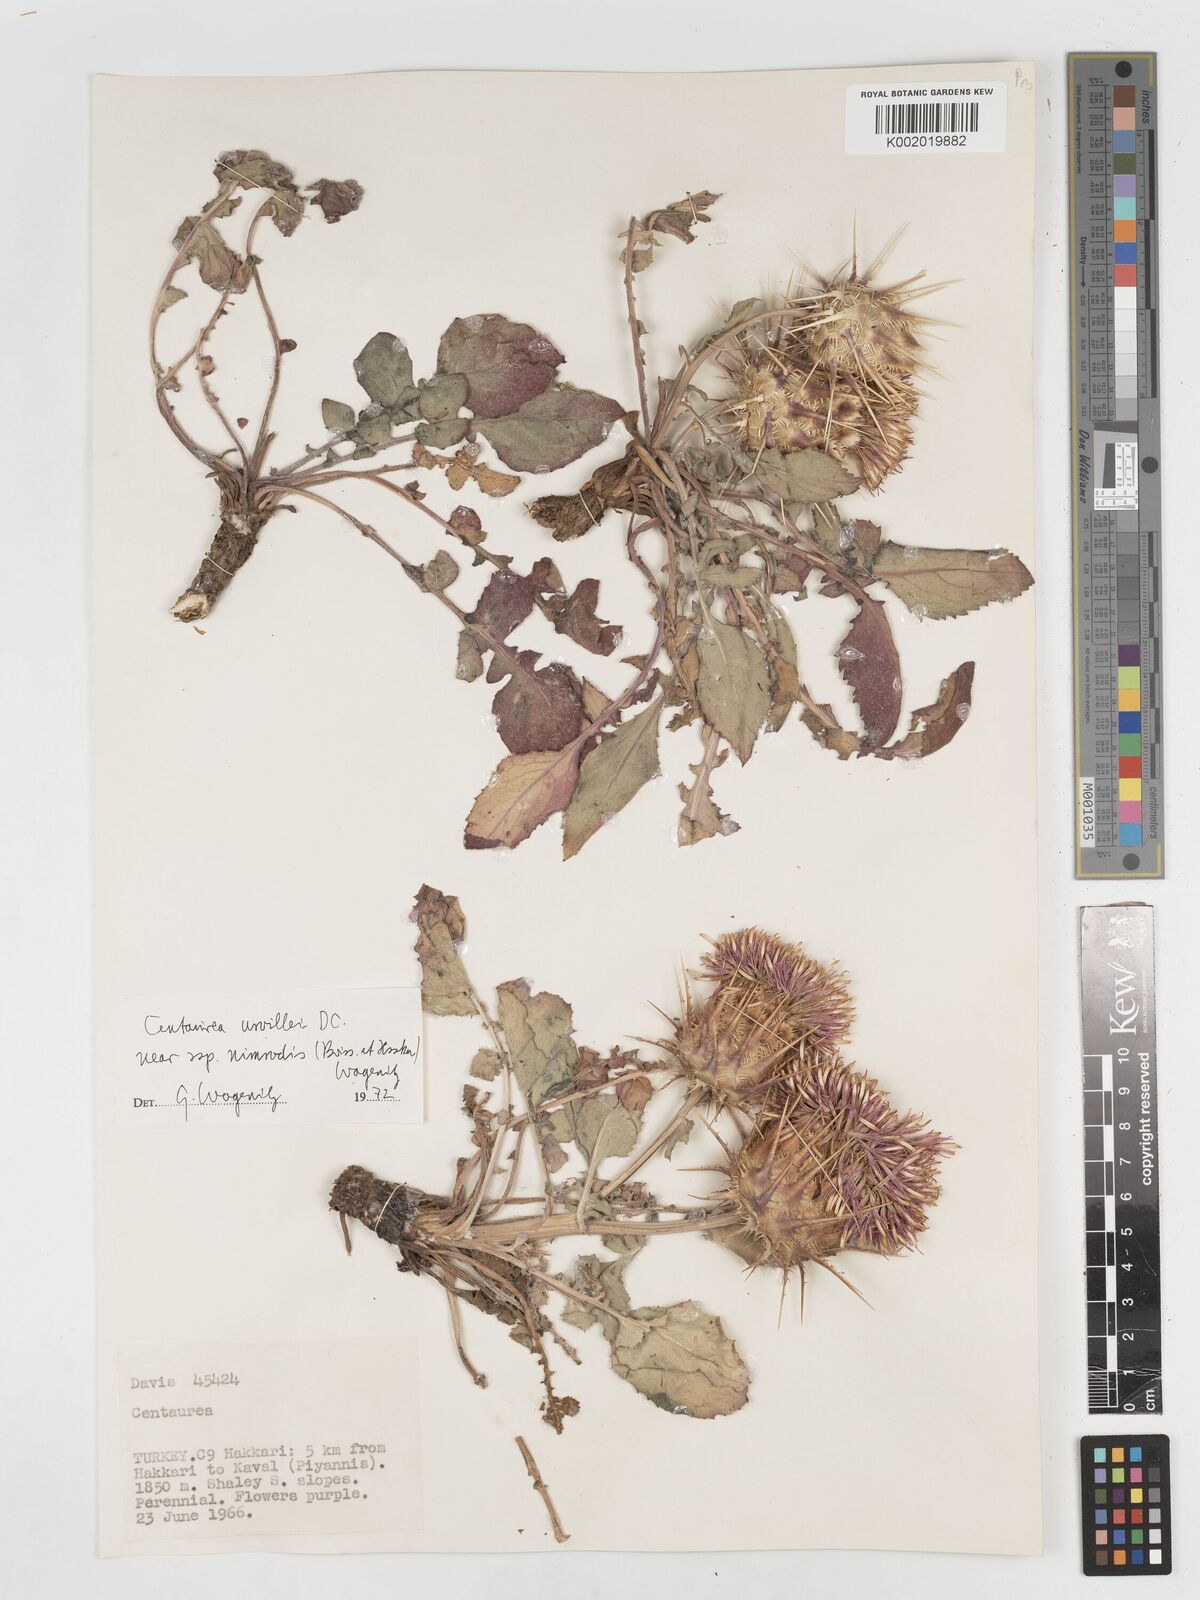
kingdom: Plantae
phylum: Tracheophyta
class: Magnoliopsida
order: Asterales
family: Asteraceae
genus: Centaurea
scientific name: Centaurea urvillei
